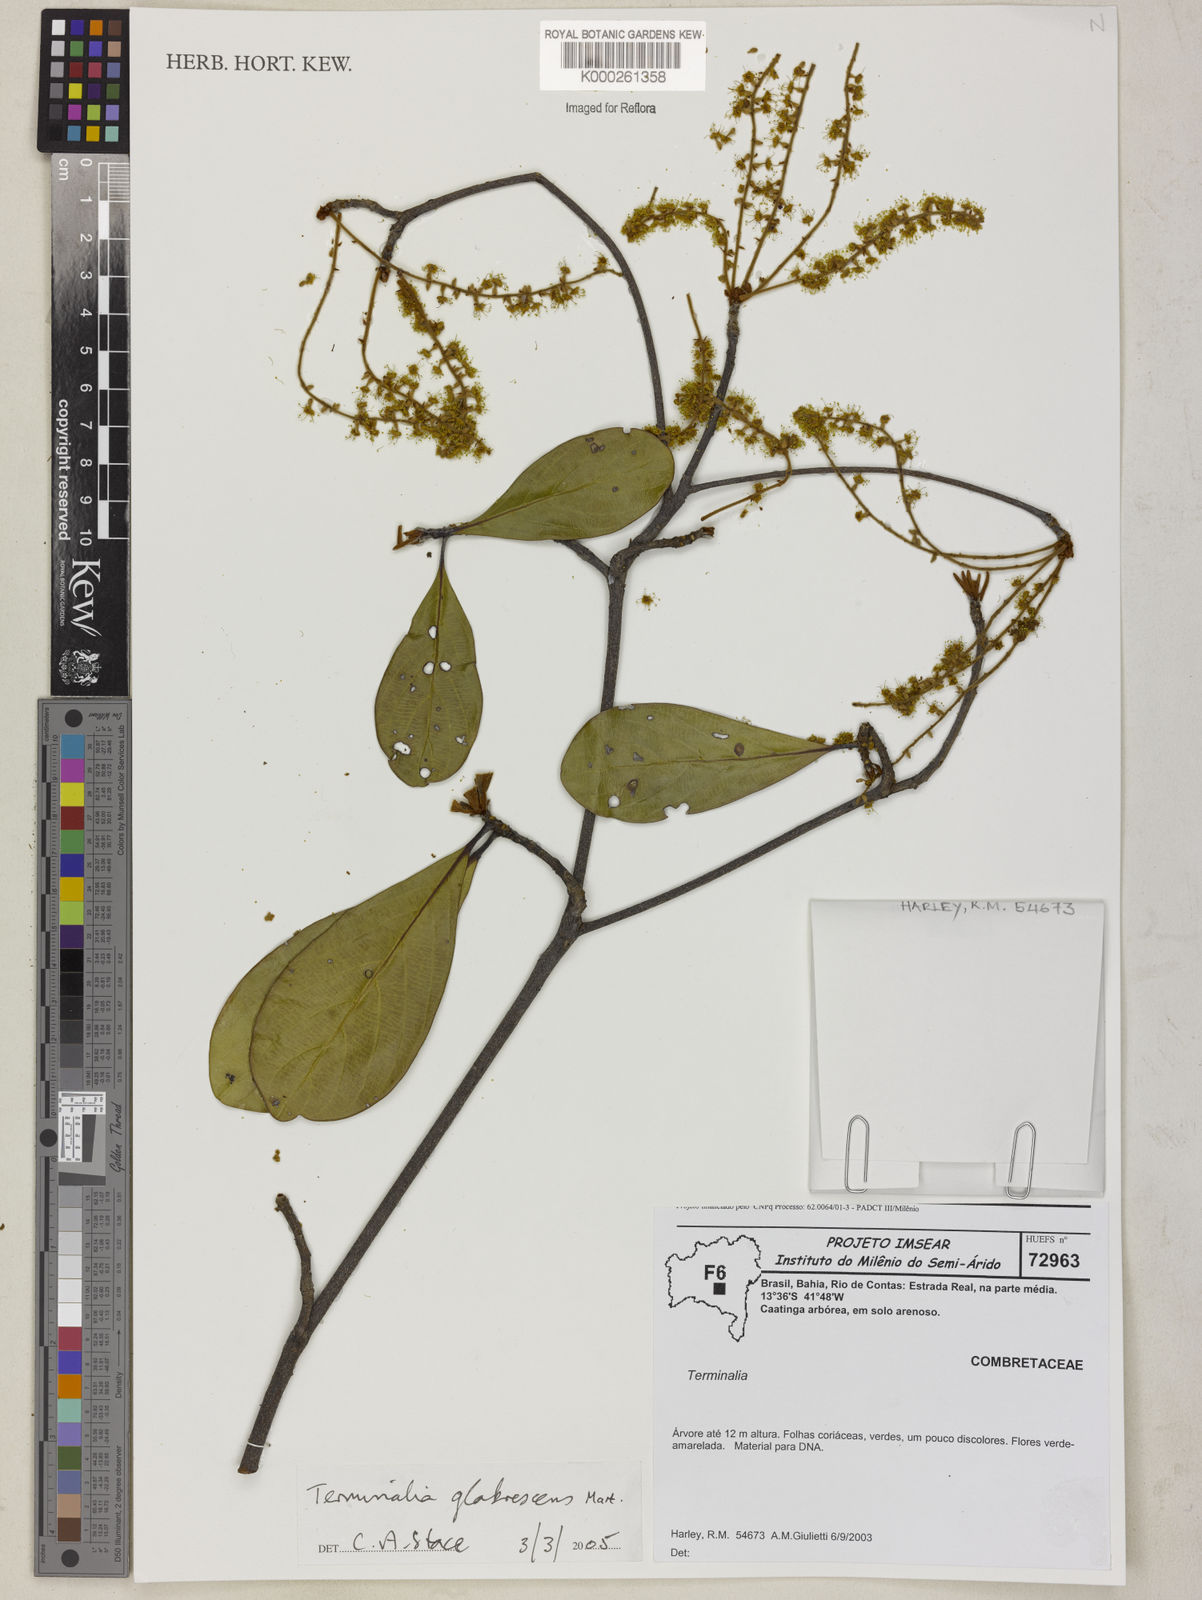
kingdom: Plantae
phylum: Tracheophyta
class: Magnoliopsida
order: Myrtales
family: Combretaceae
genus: Terminalia
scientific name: Terminalia glabrescens
